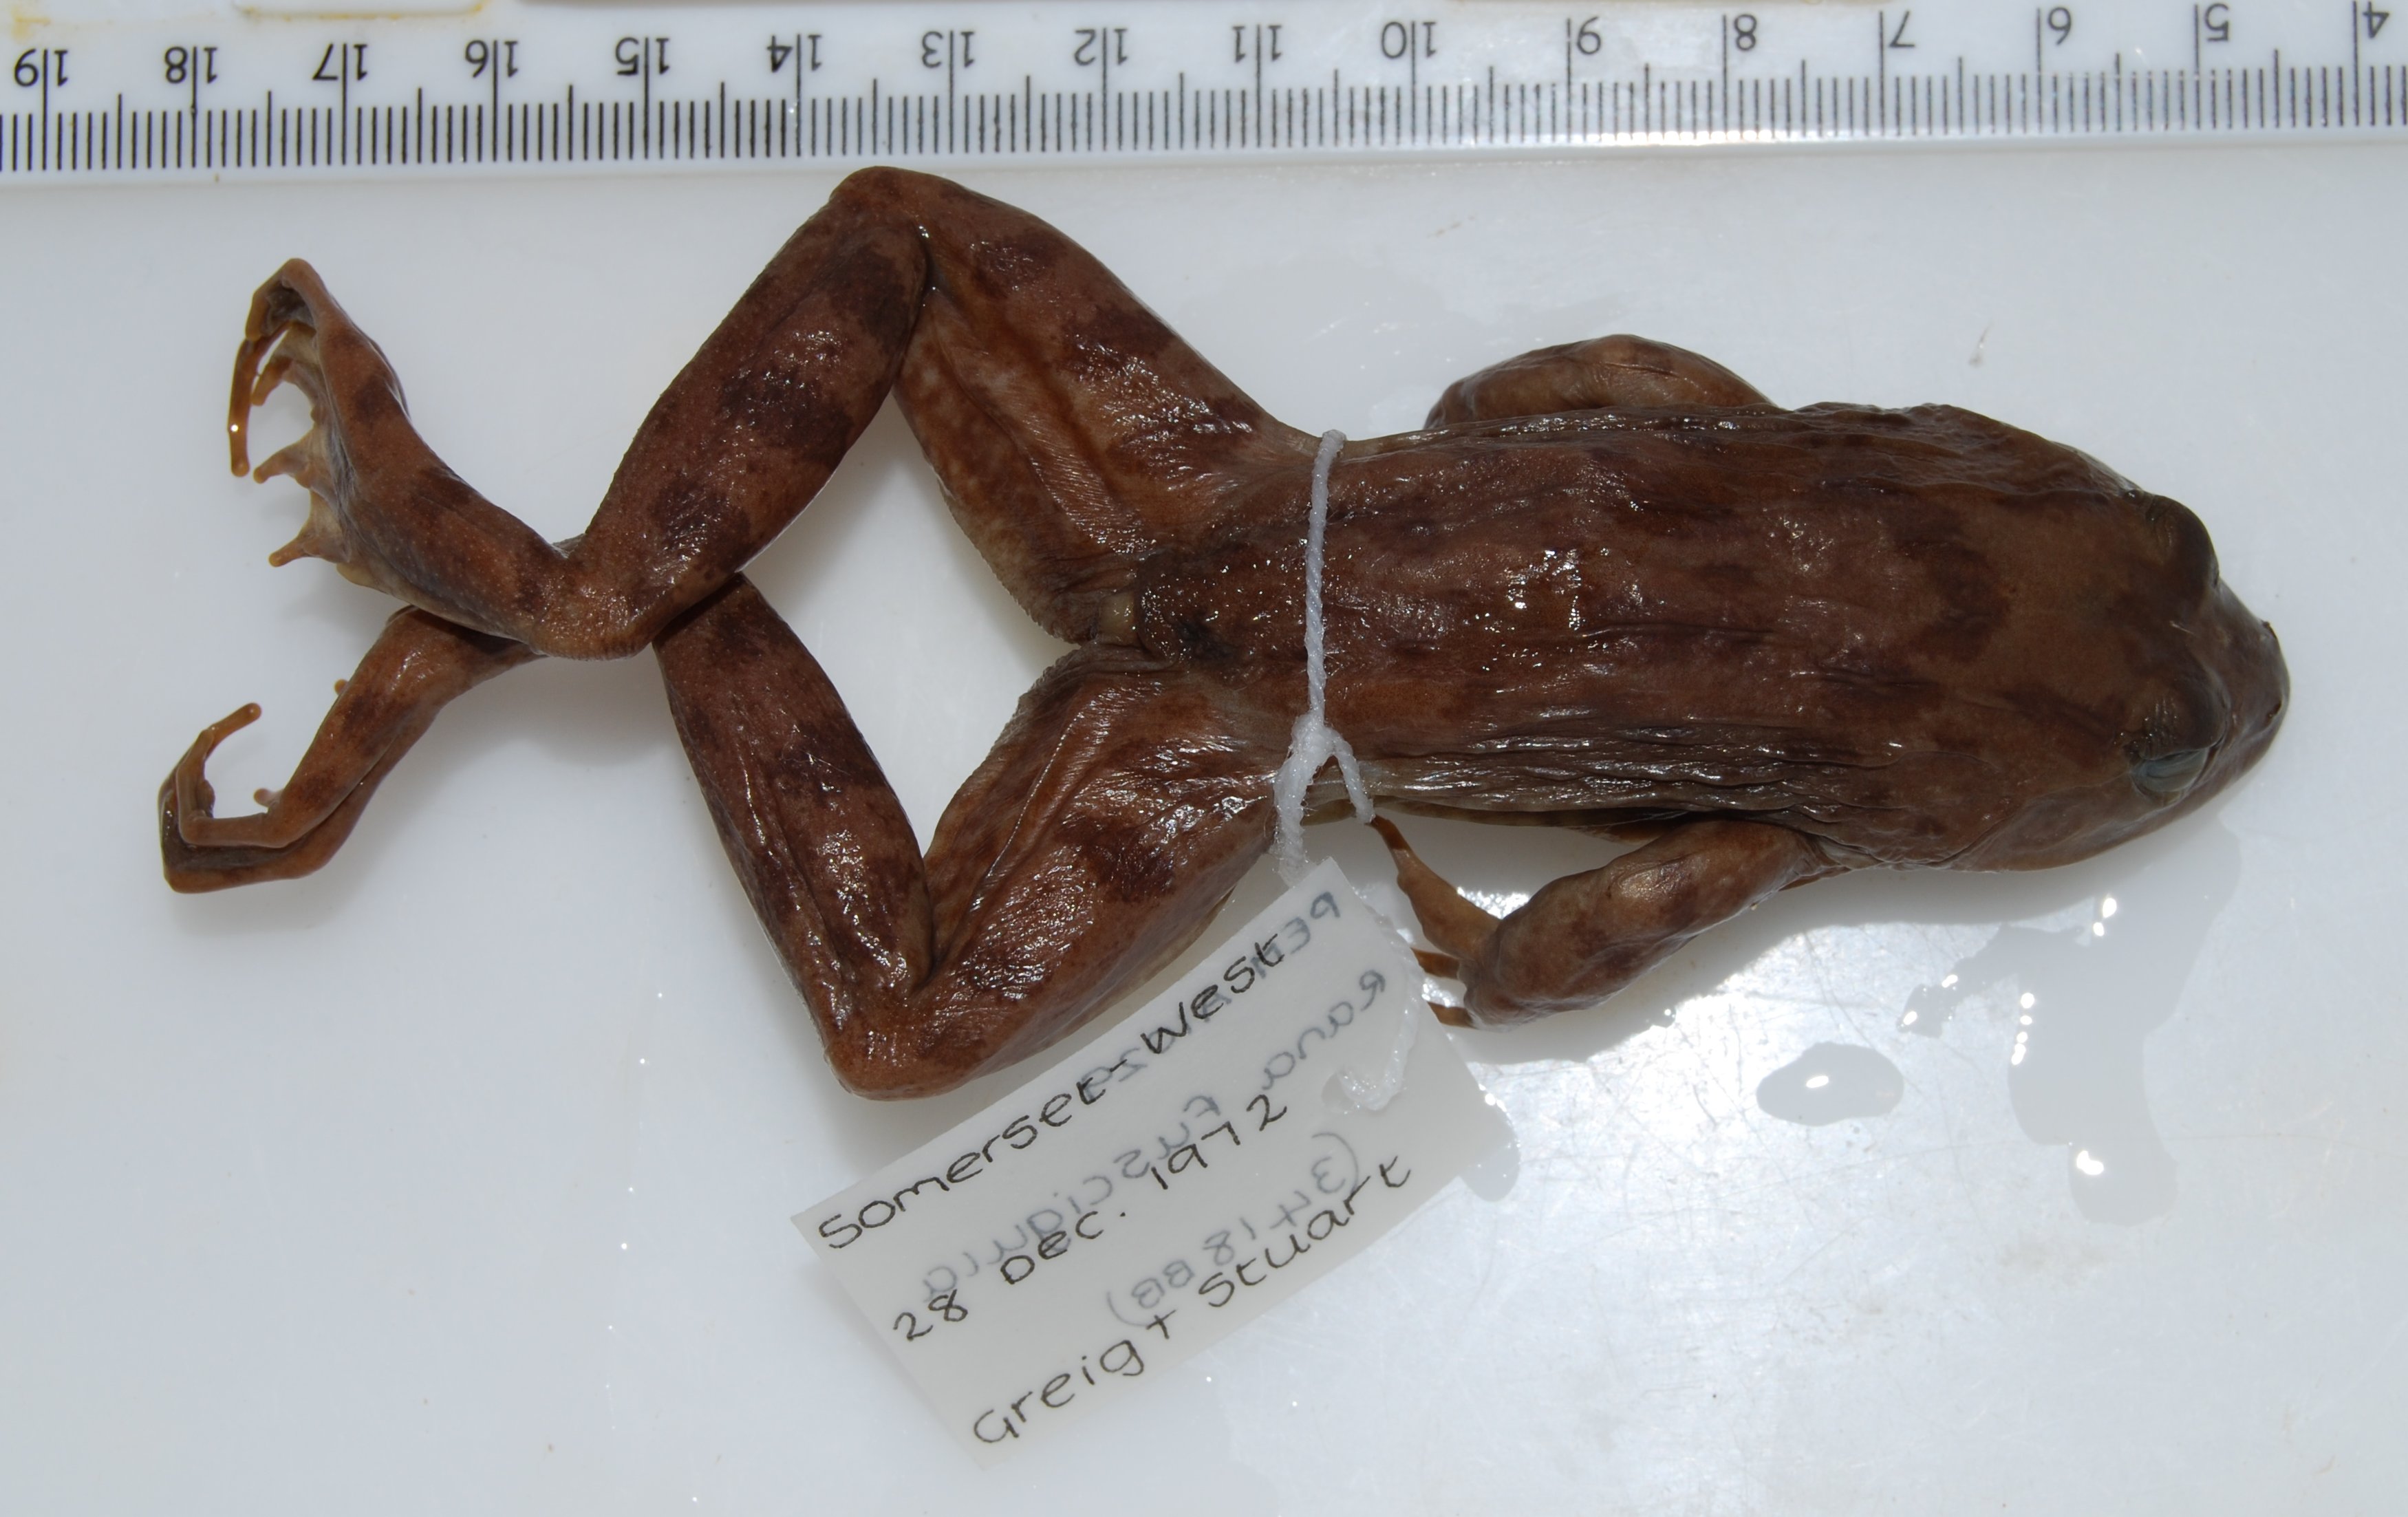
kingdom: Animalia
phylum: Chordata
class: Amphibia
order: Anura
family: Pyxicephalidae
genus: Amietia
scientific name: Amietia fuscigula
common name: Cape rana
